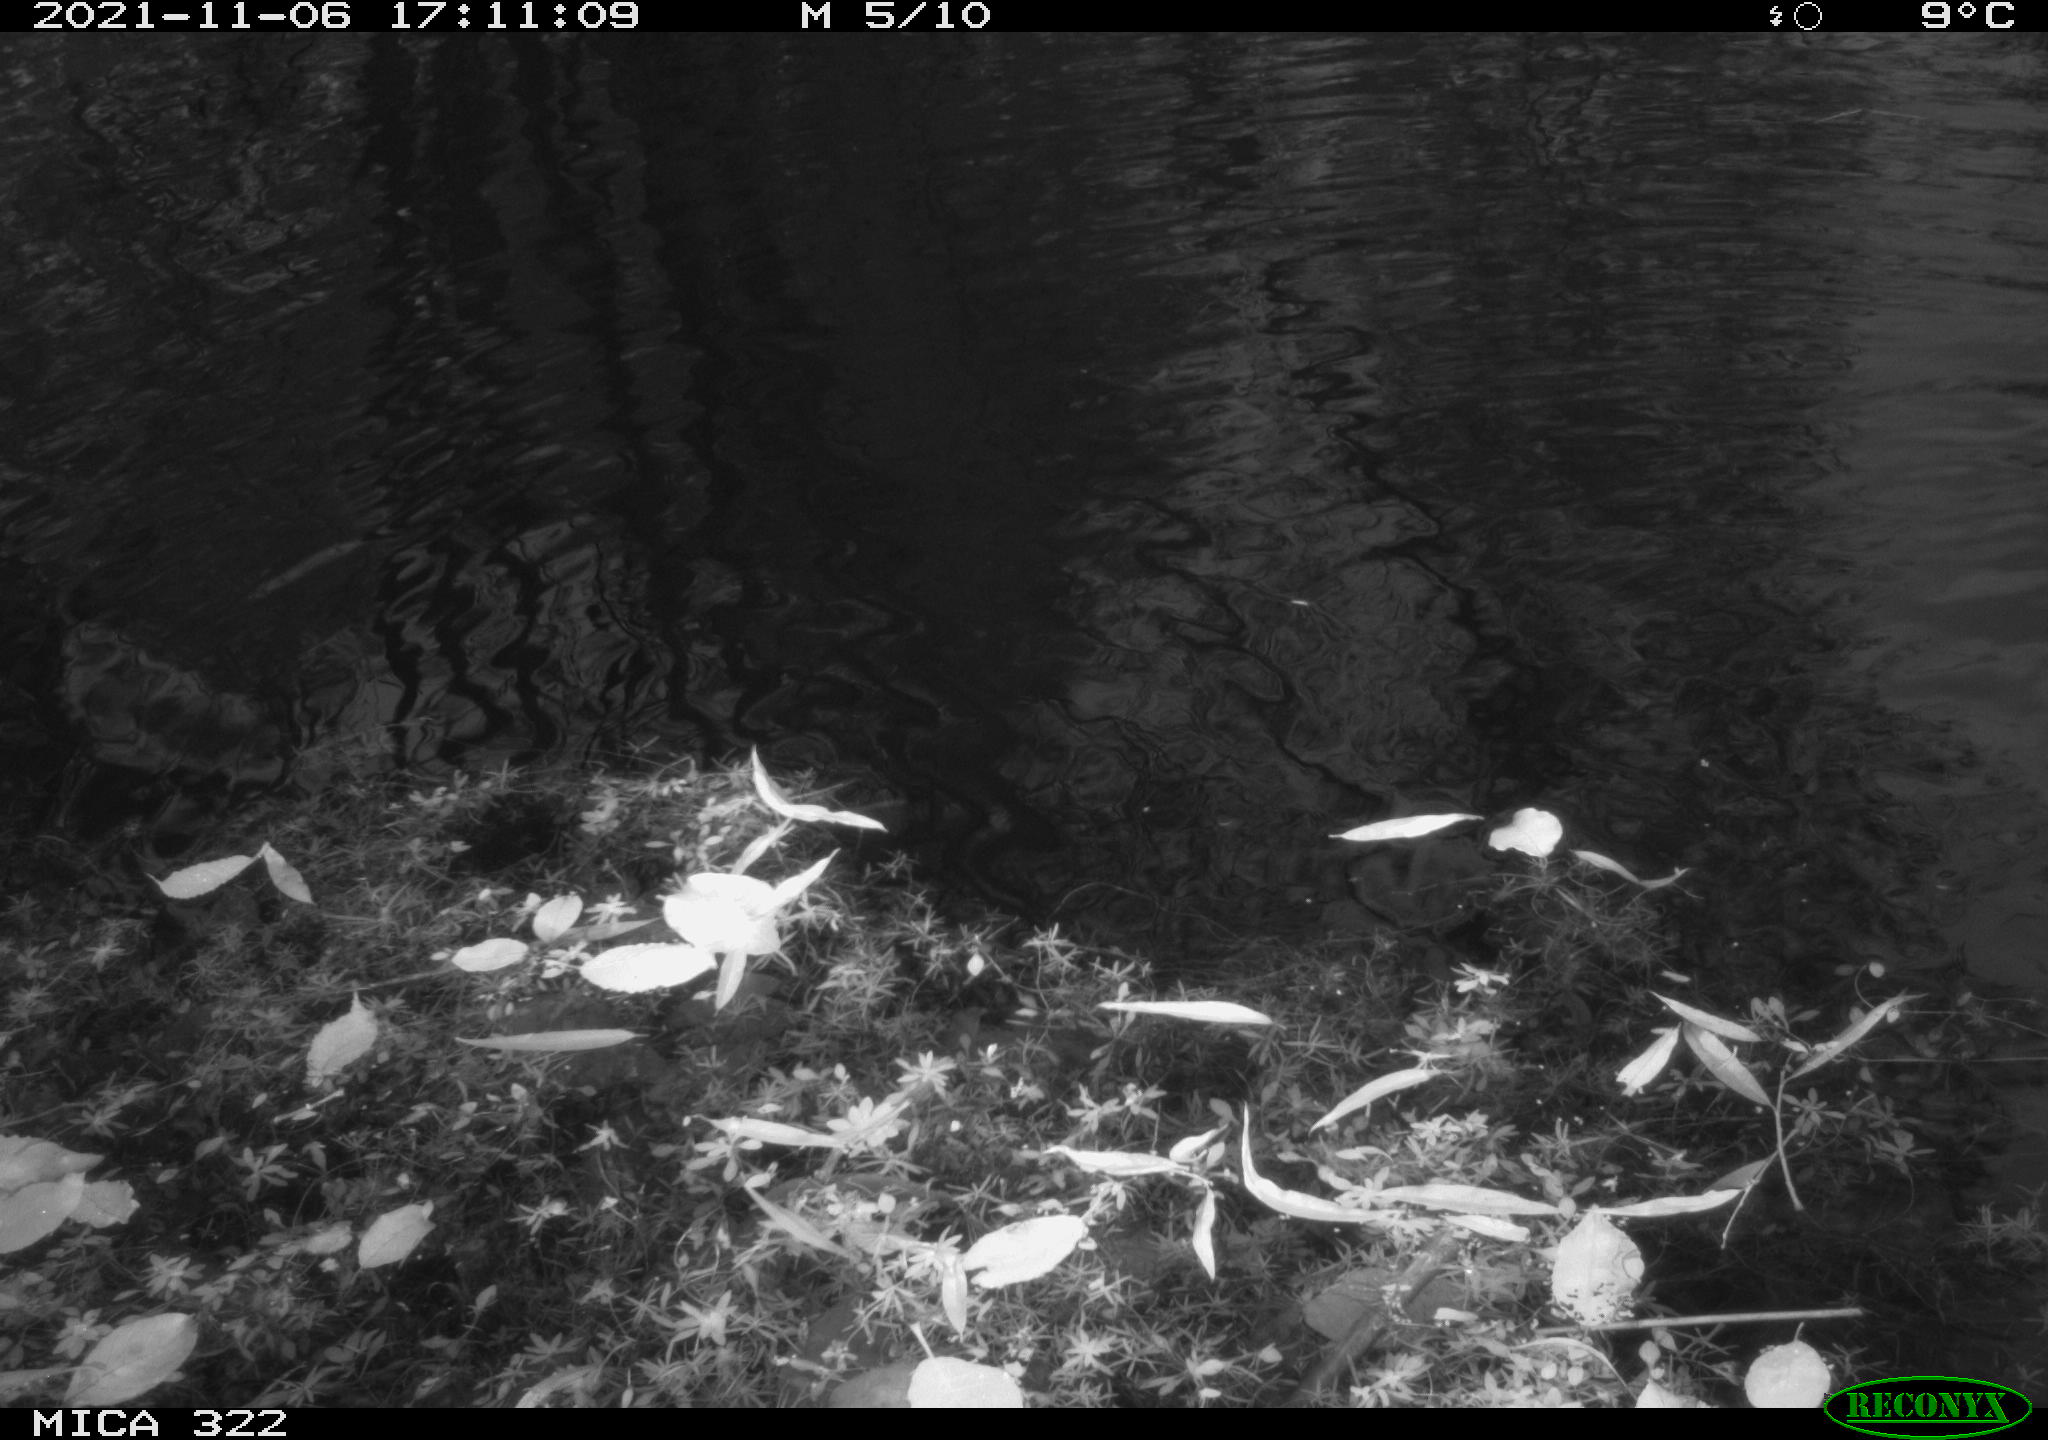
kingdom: Animalia
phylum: Chordata
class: Aves
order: Gruiformes
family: Rallidae
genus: Gallinula
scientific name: Gallinula chloropus
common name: Common moorhen
